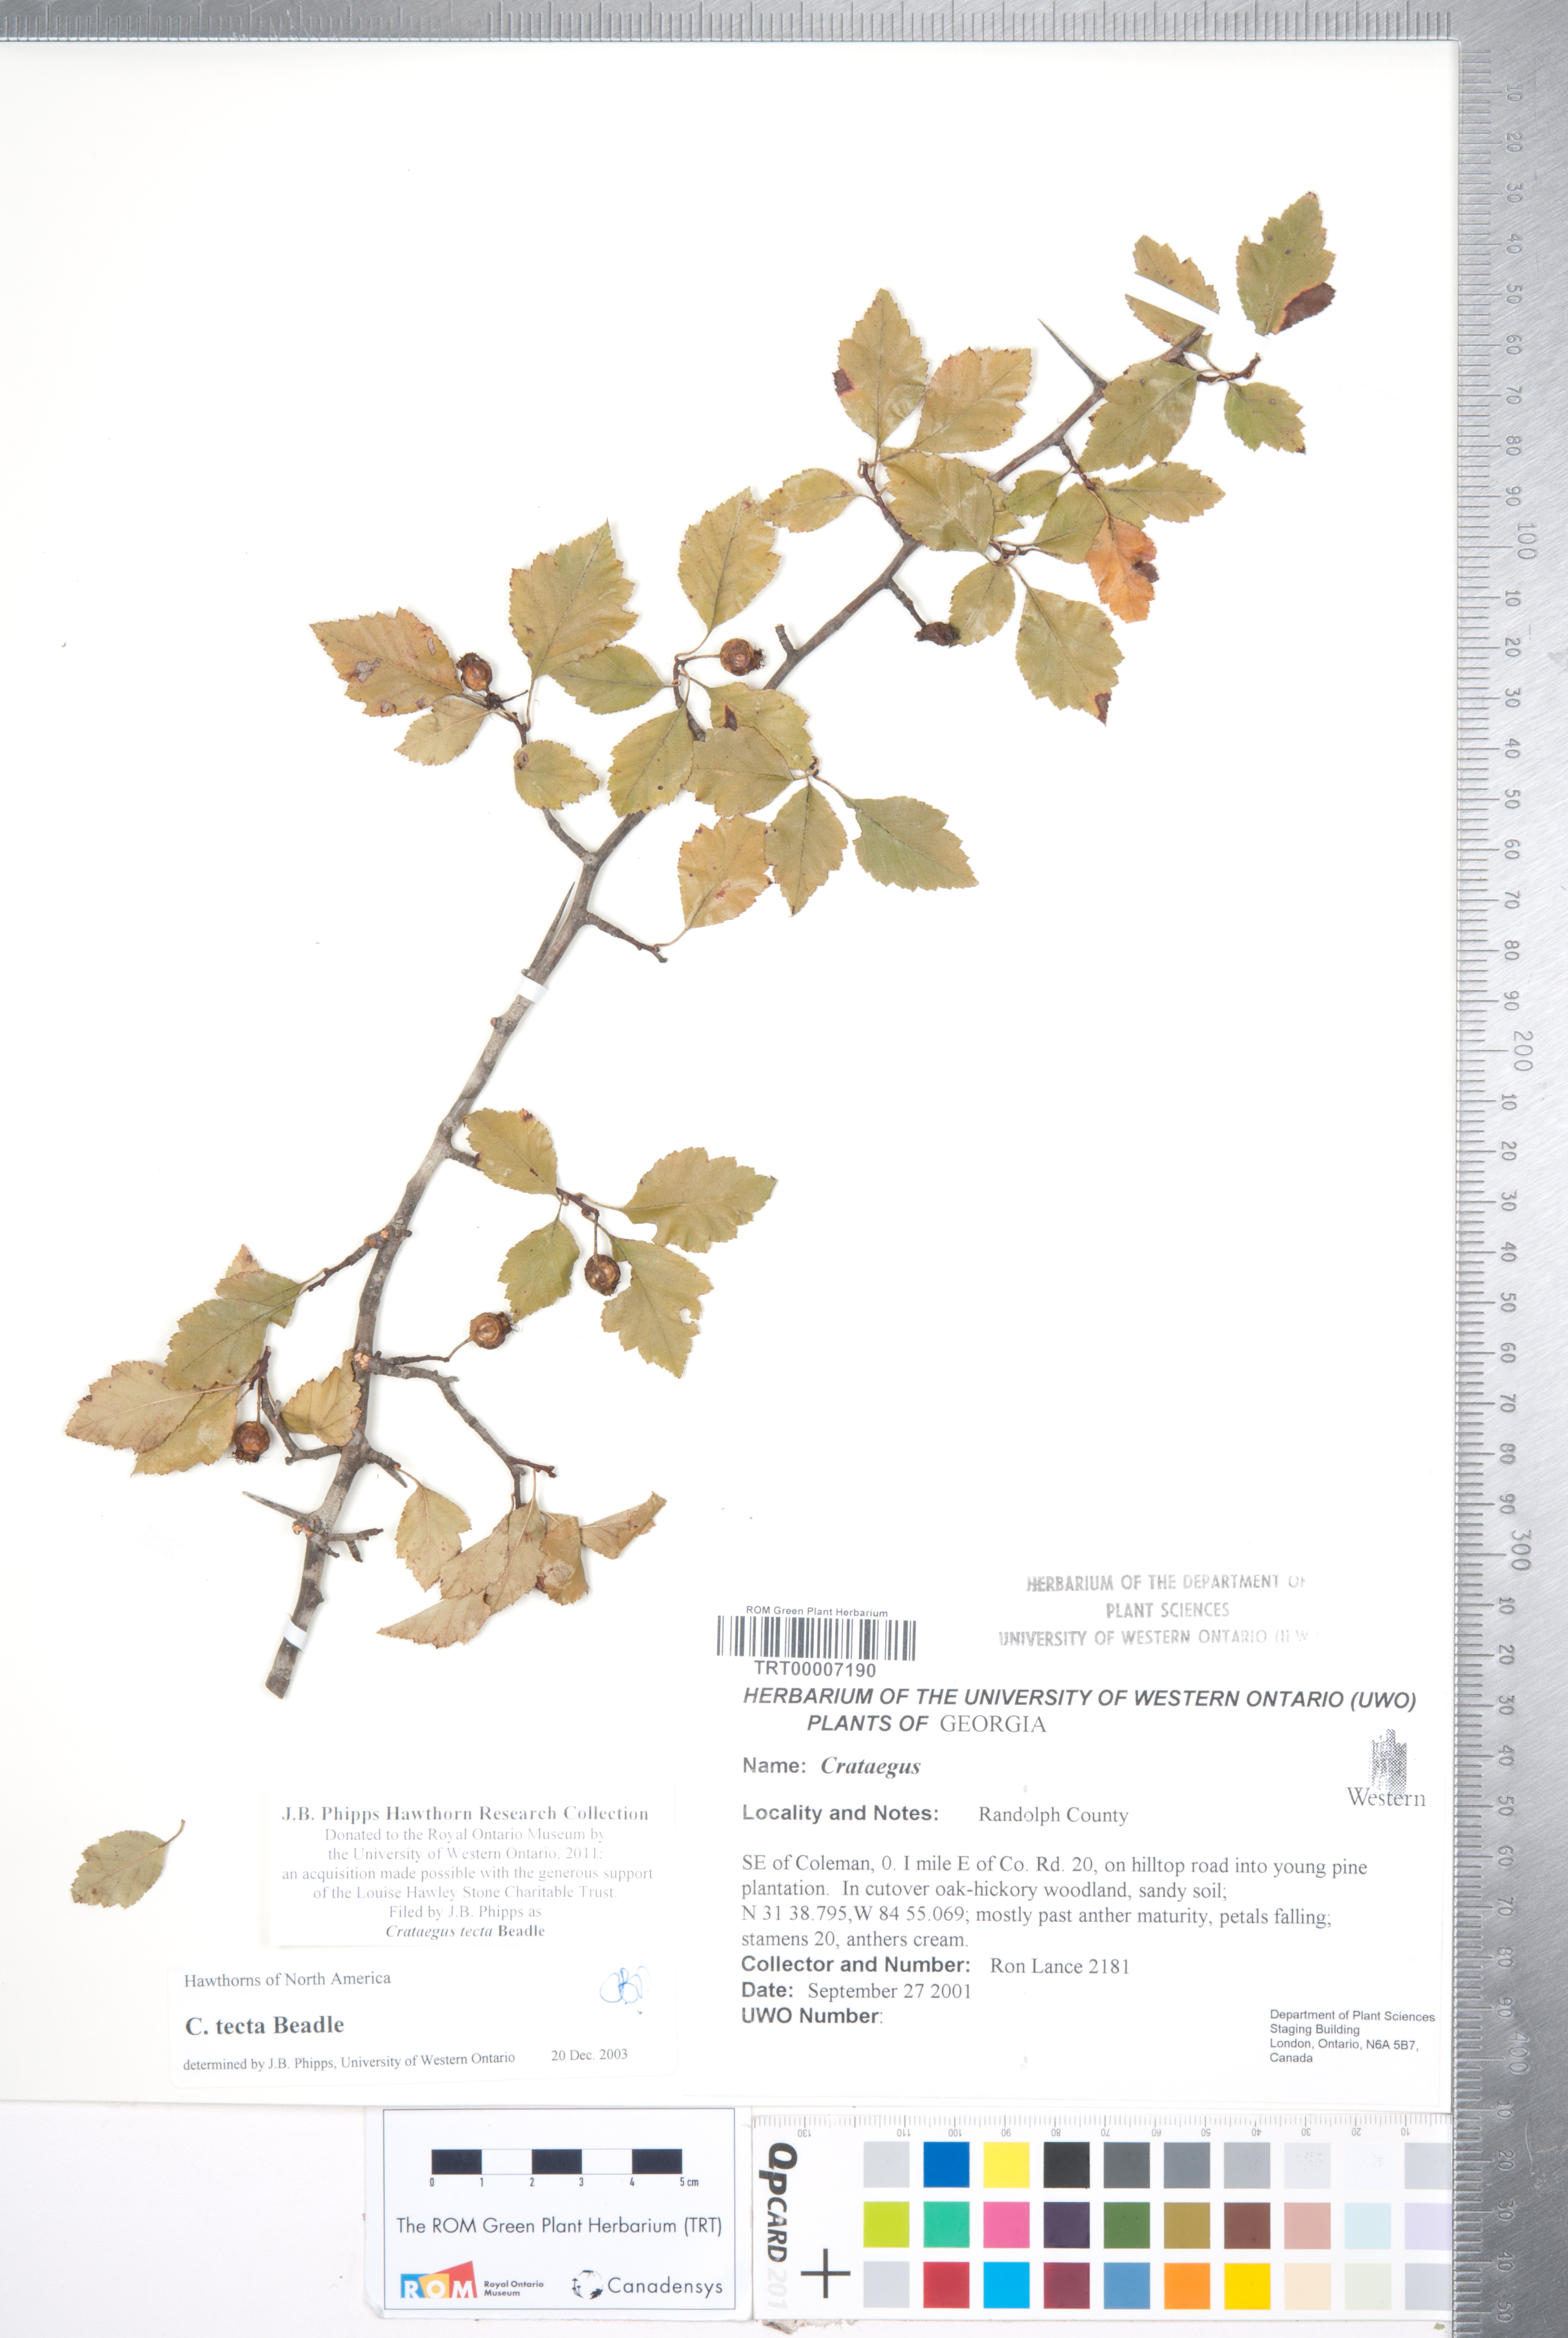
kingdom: Plantae
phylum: Tracheophyta
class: Magnoliopsida
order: Rosales
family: Rosaceae
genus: Crataegus
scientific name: Crataegus pulcherrima
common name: Beautiful hawthorn
